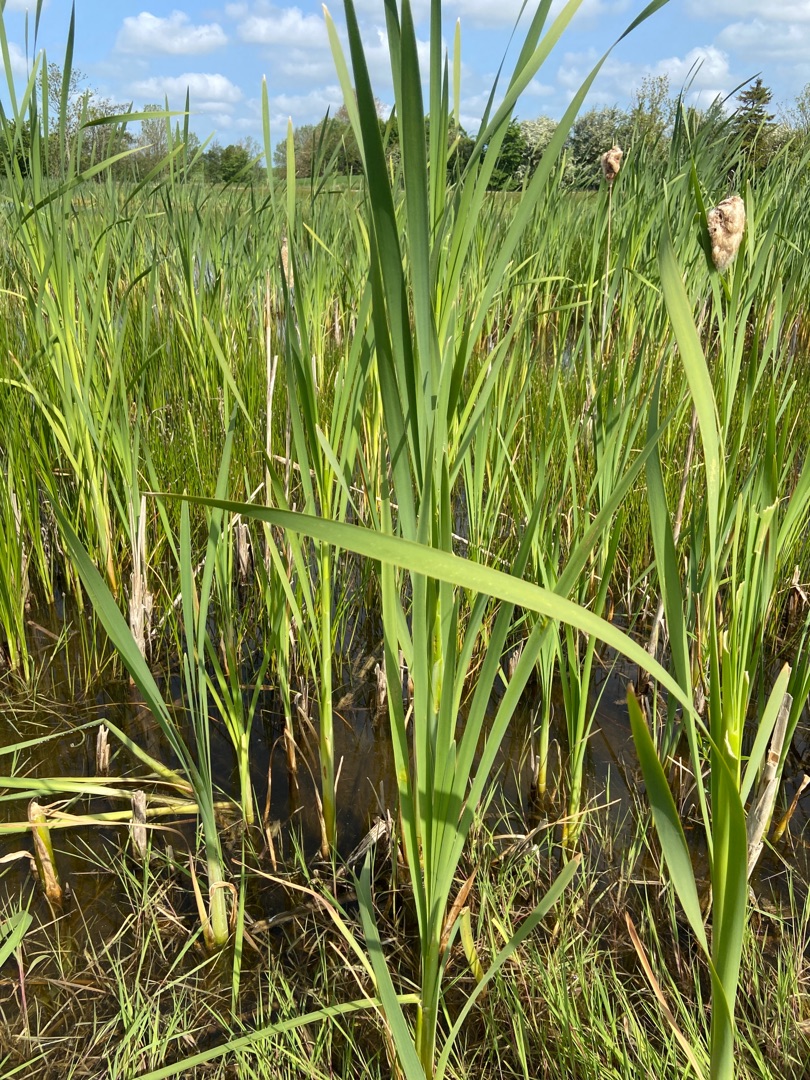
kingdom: Plantae
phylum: Tracheophyta
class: Liliopsida
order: Poales
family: Typhaceae
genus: Typha
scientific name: Typha latifolia
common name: Bredbladet dunhammer
